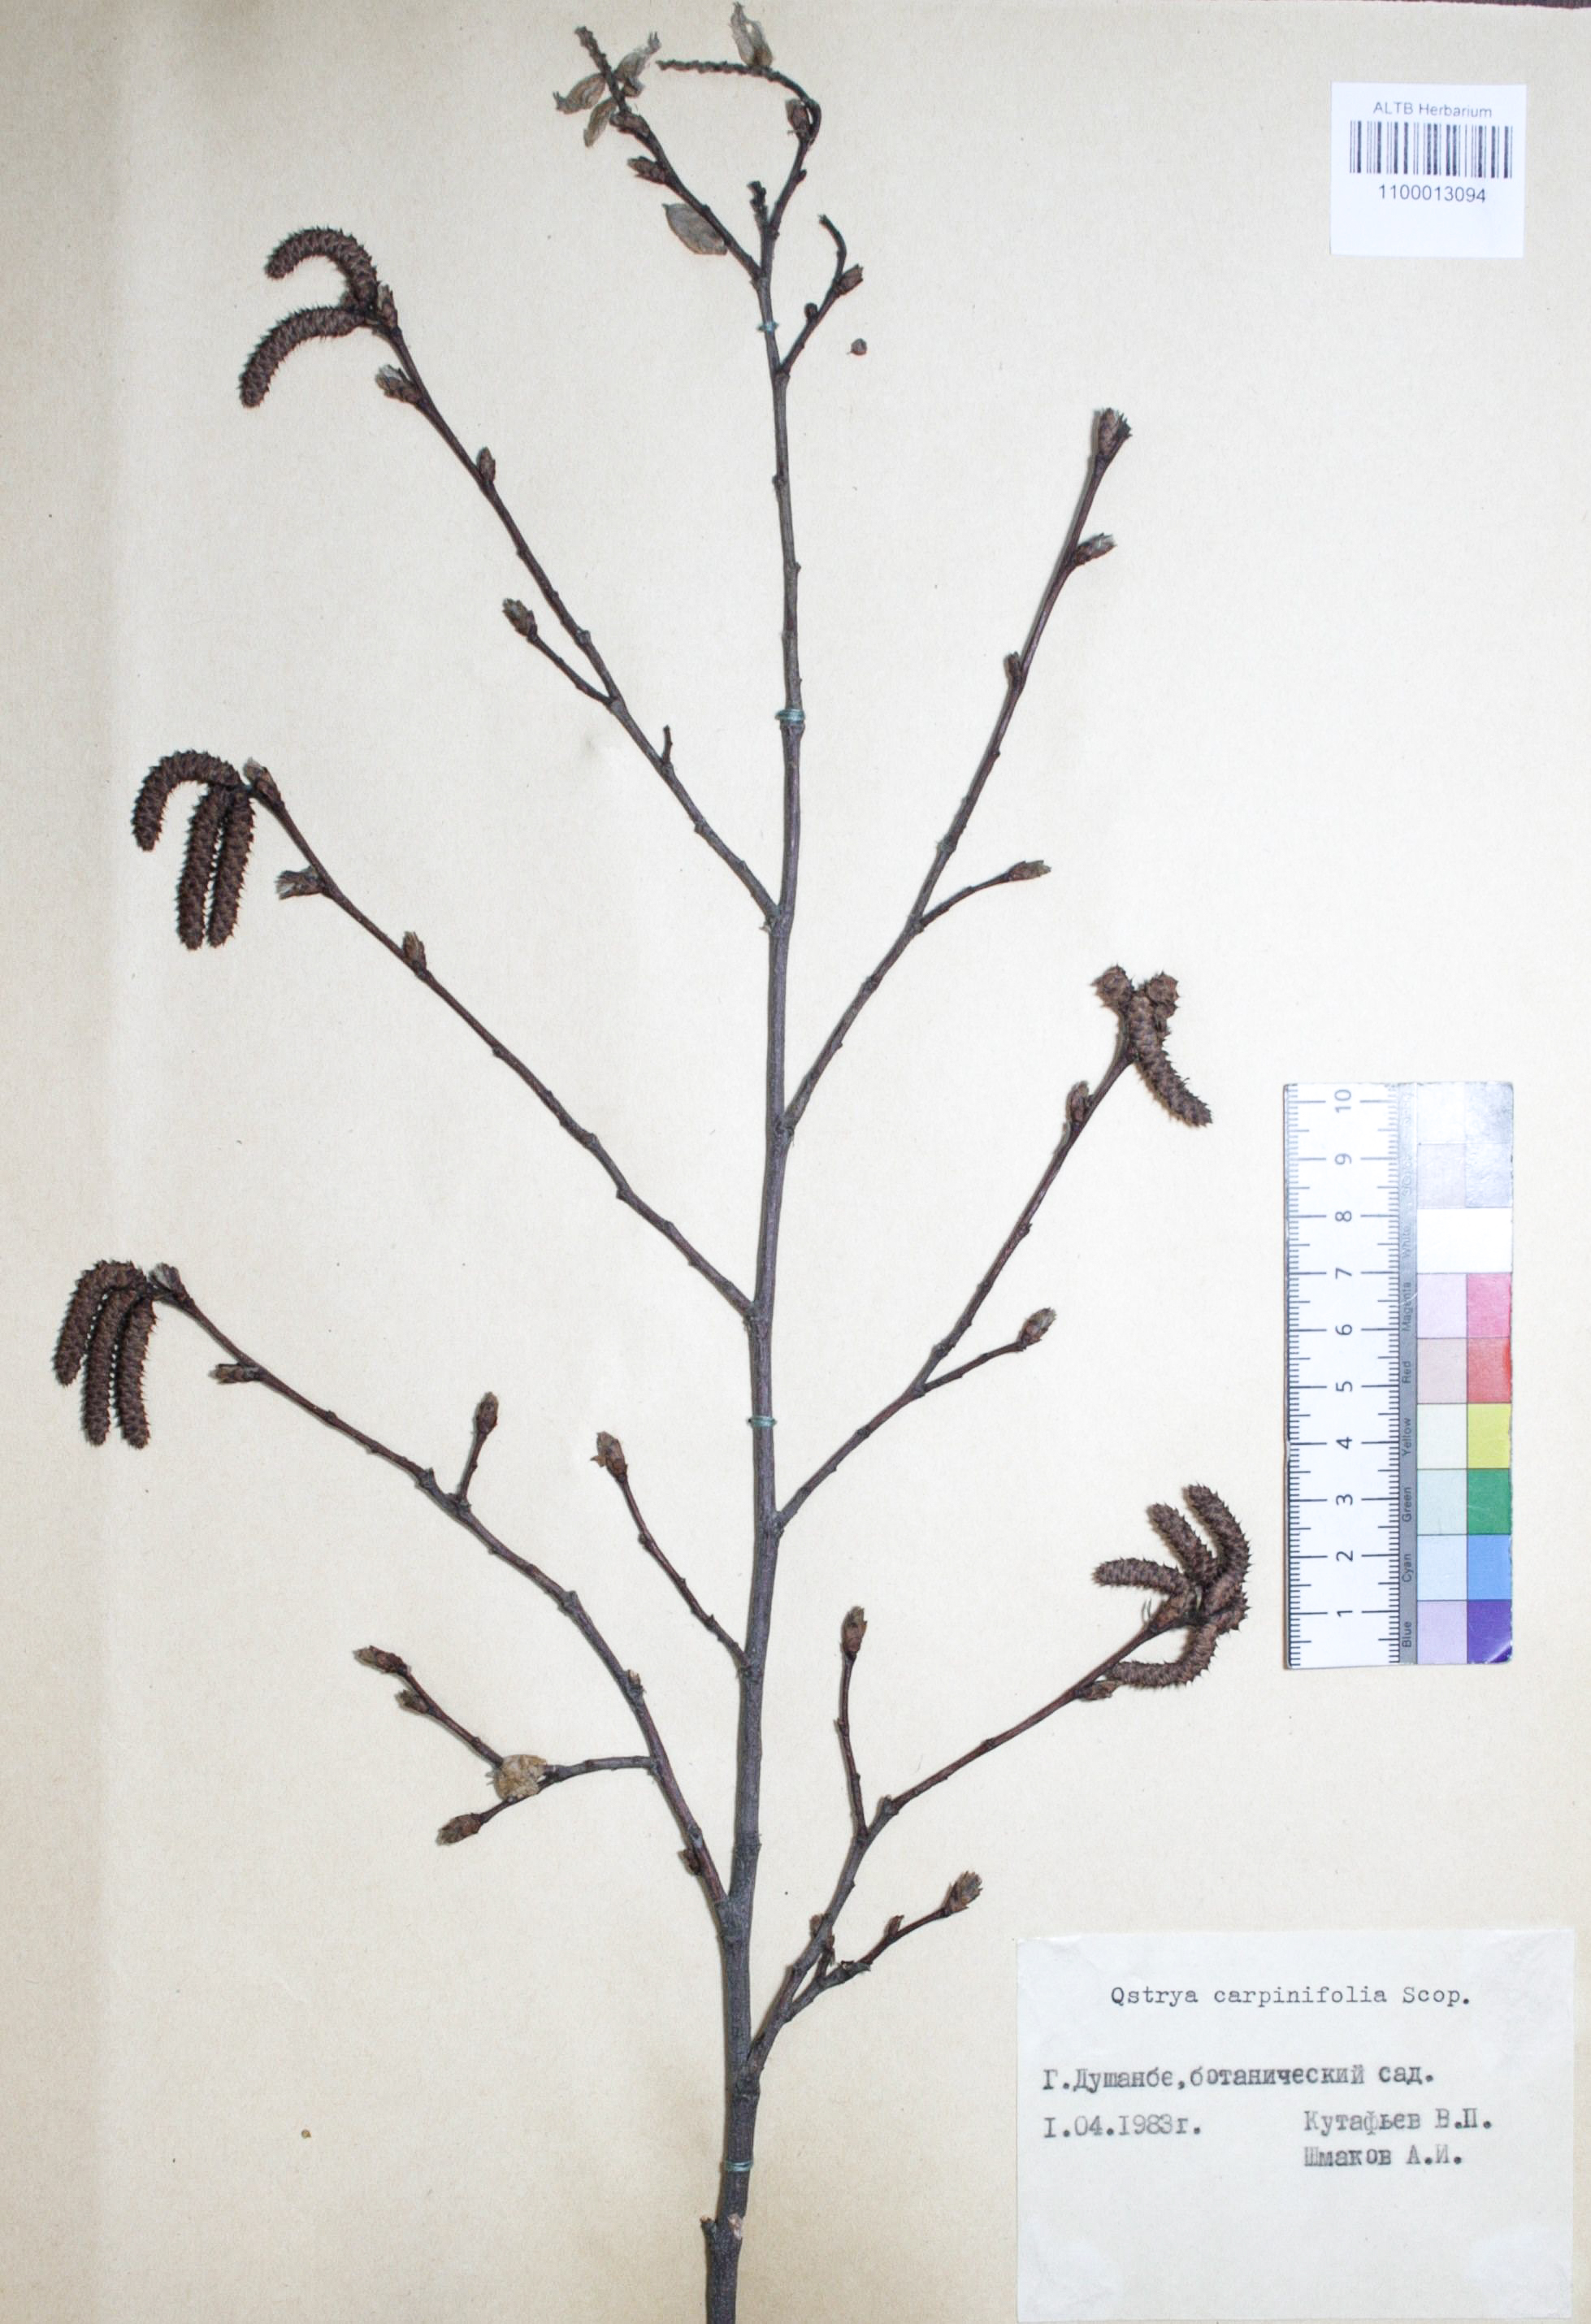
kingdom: Plantae
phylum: Tracheophyta
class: Magnoliopsida
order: Fagales
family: Betulaceae
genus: Ostrya
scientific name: Ostrya carpinifolia
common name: European hop-hornbeam
